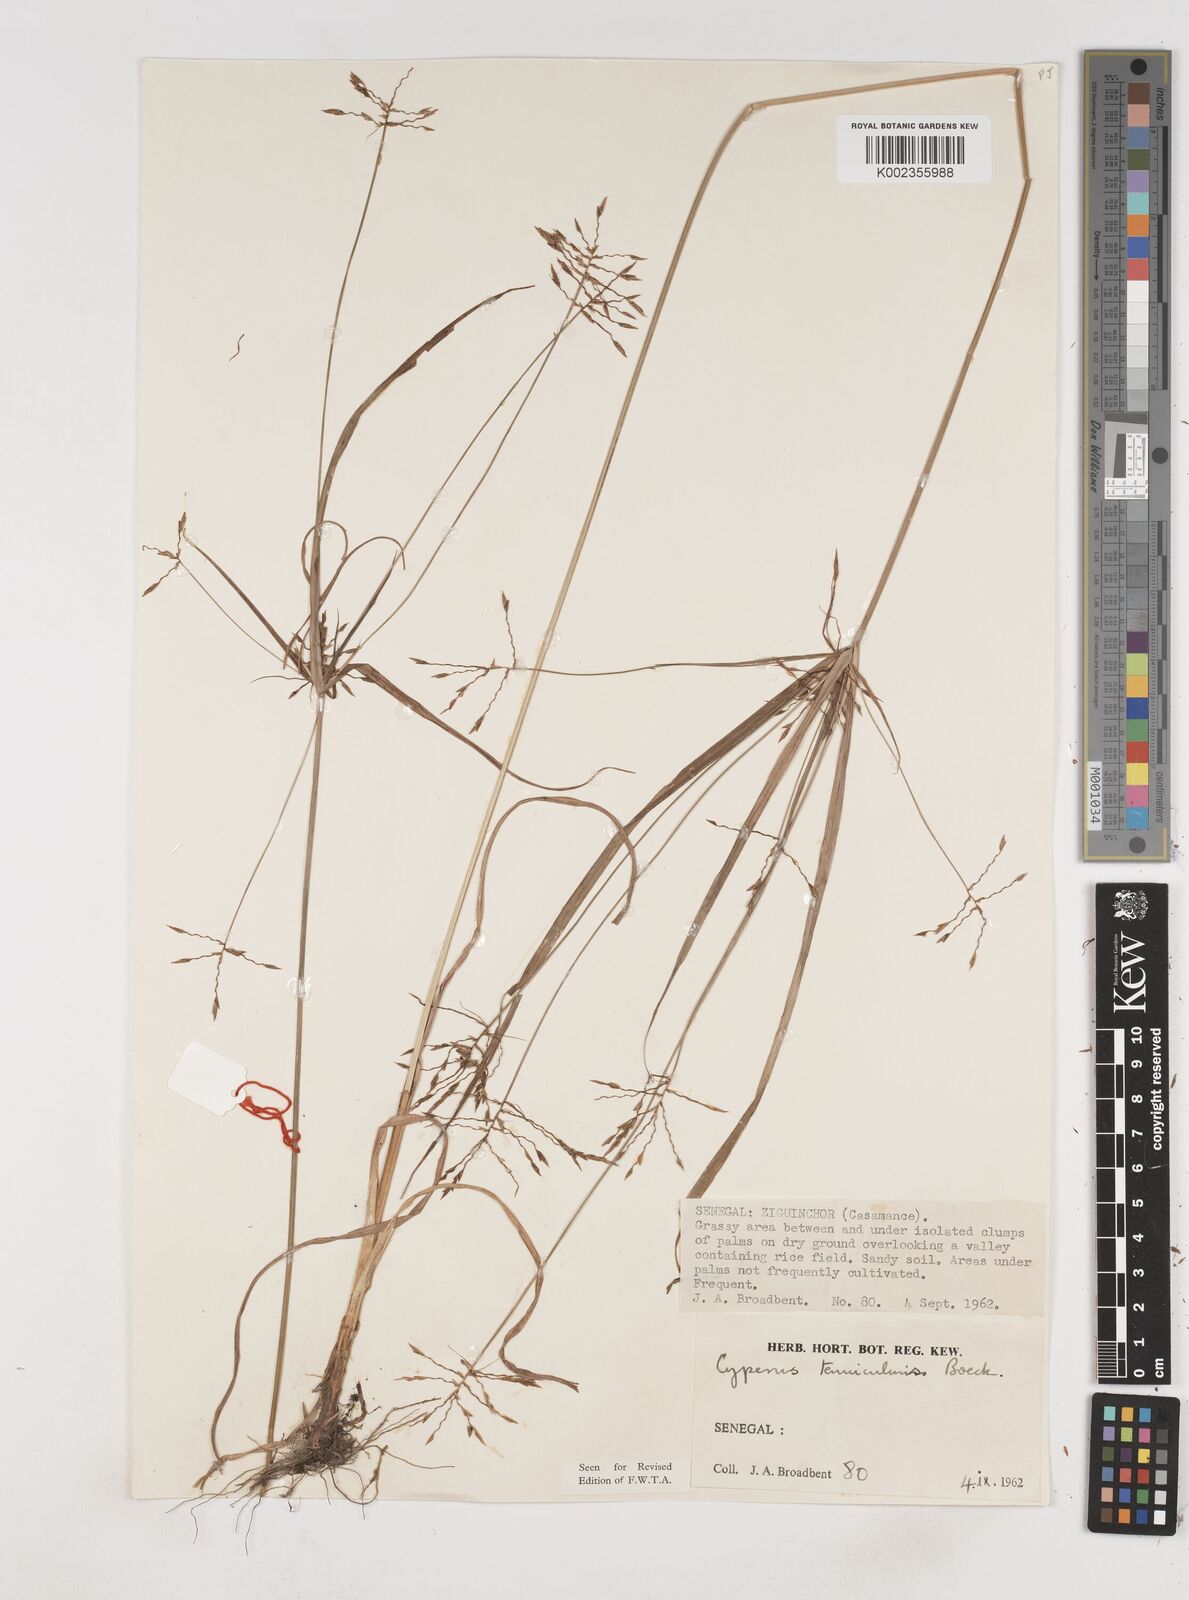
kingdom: Plantae
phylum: Tracheophyta
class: Liliopsida
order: Poales
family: Cyperaceae
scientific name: Cyperaceae
